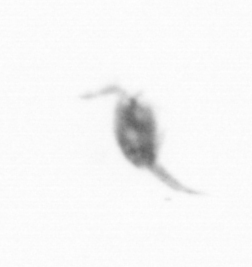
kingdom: Animalia
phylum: Arthropoda
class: Copepoda
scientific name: Copepoda
